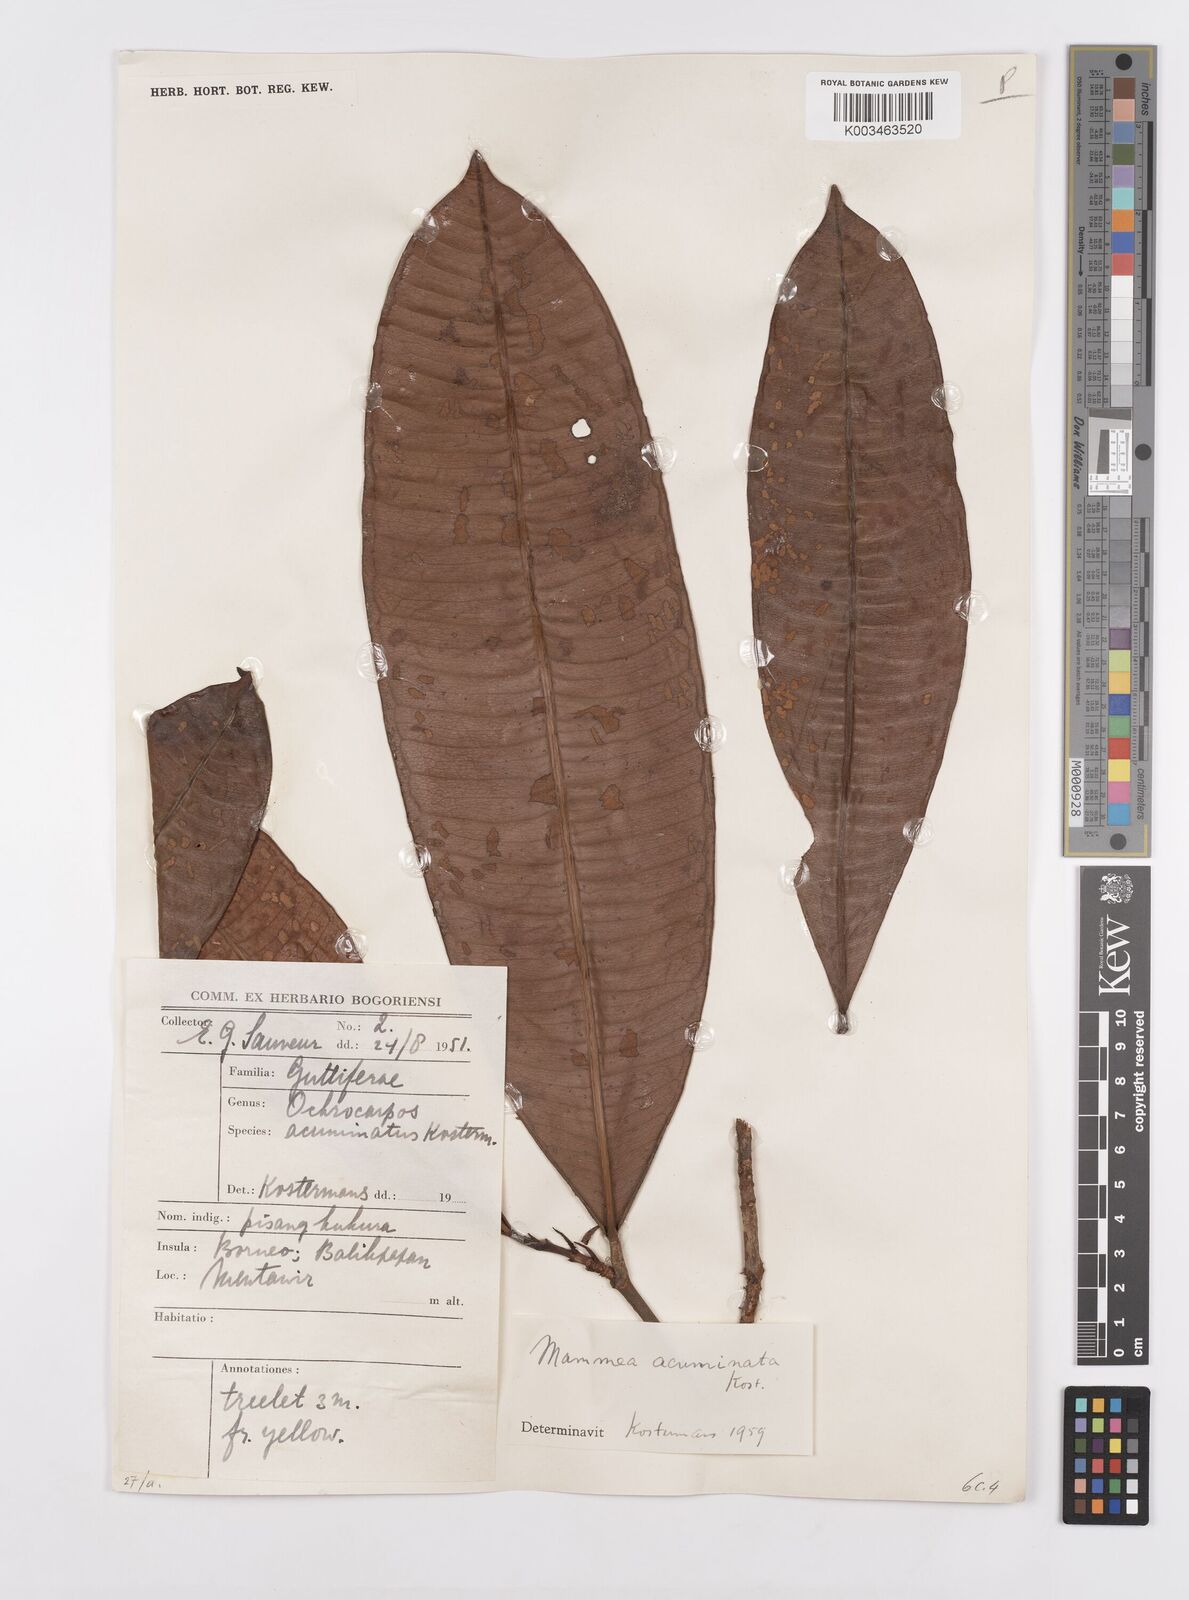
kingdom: Plantae
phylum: Tracheophyta
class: Magnoliopsida
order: Malpighiales
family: Calophyllaceae
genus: Mammea
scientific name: Mammea acuminata
